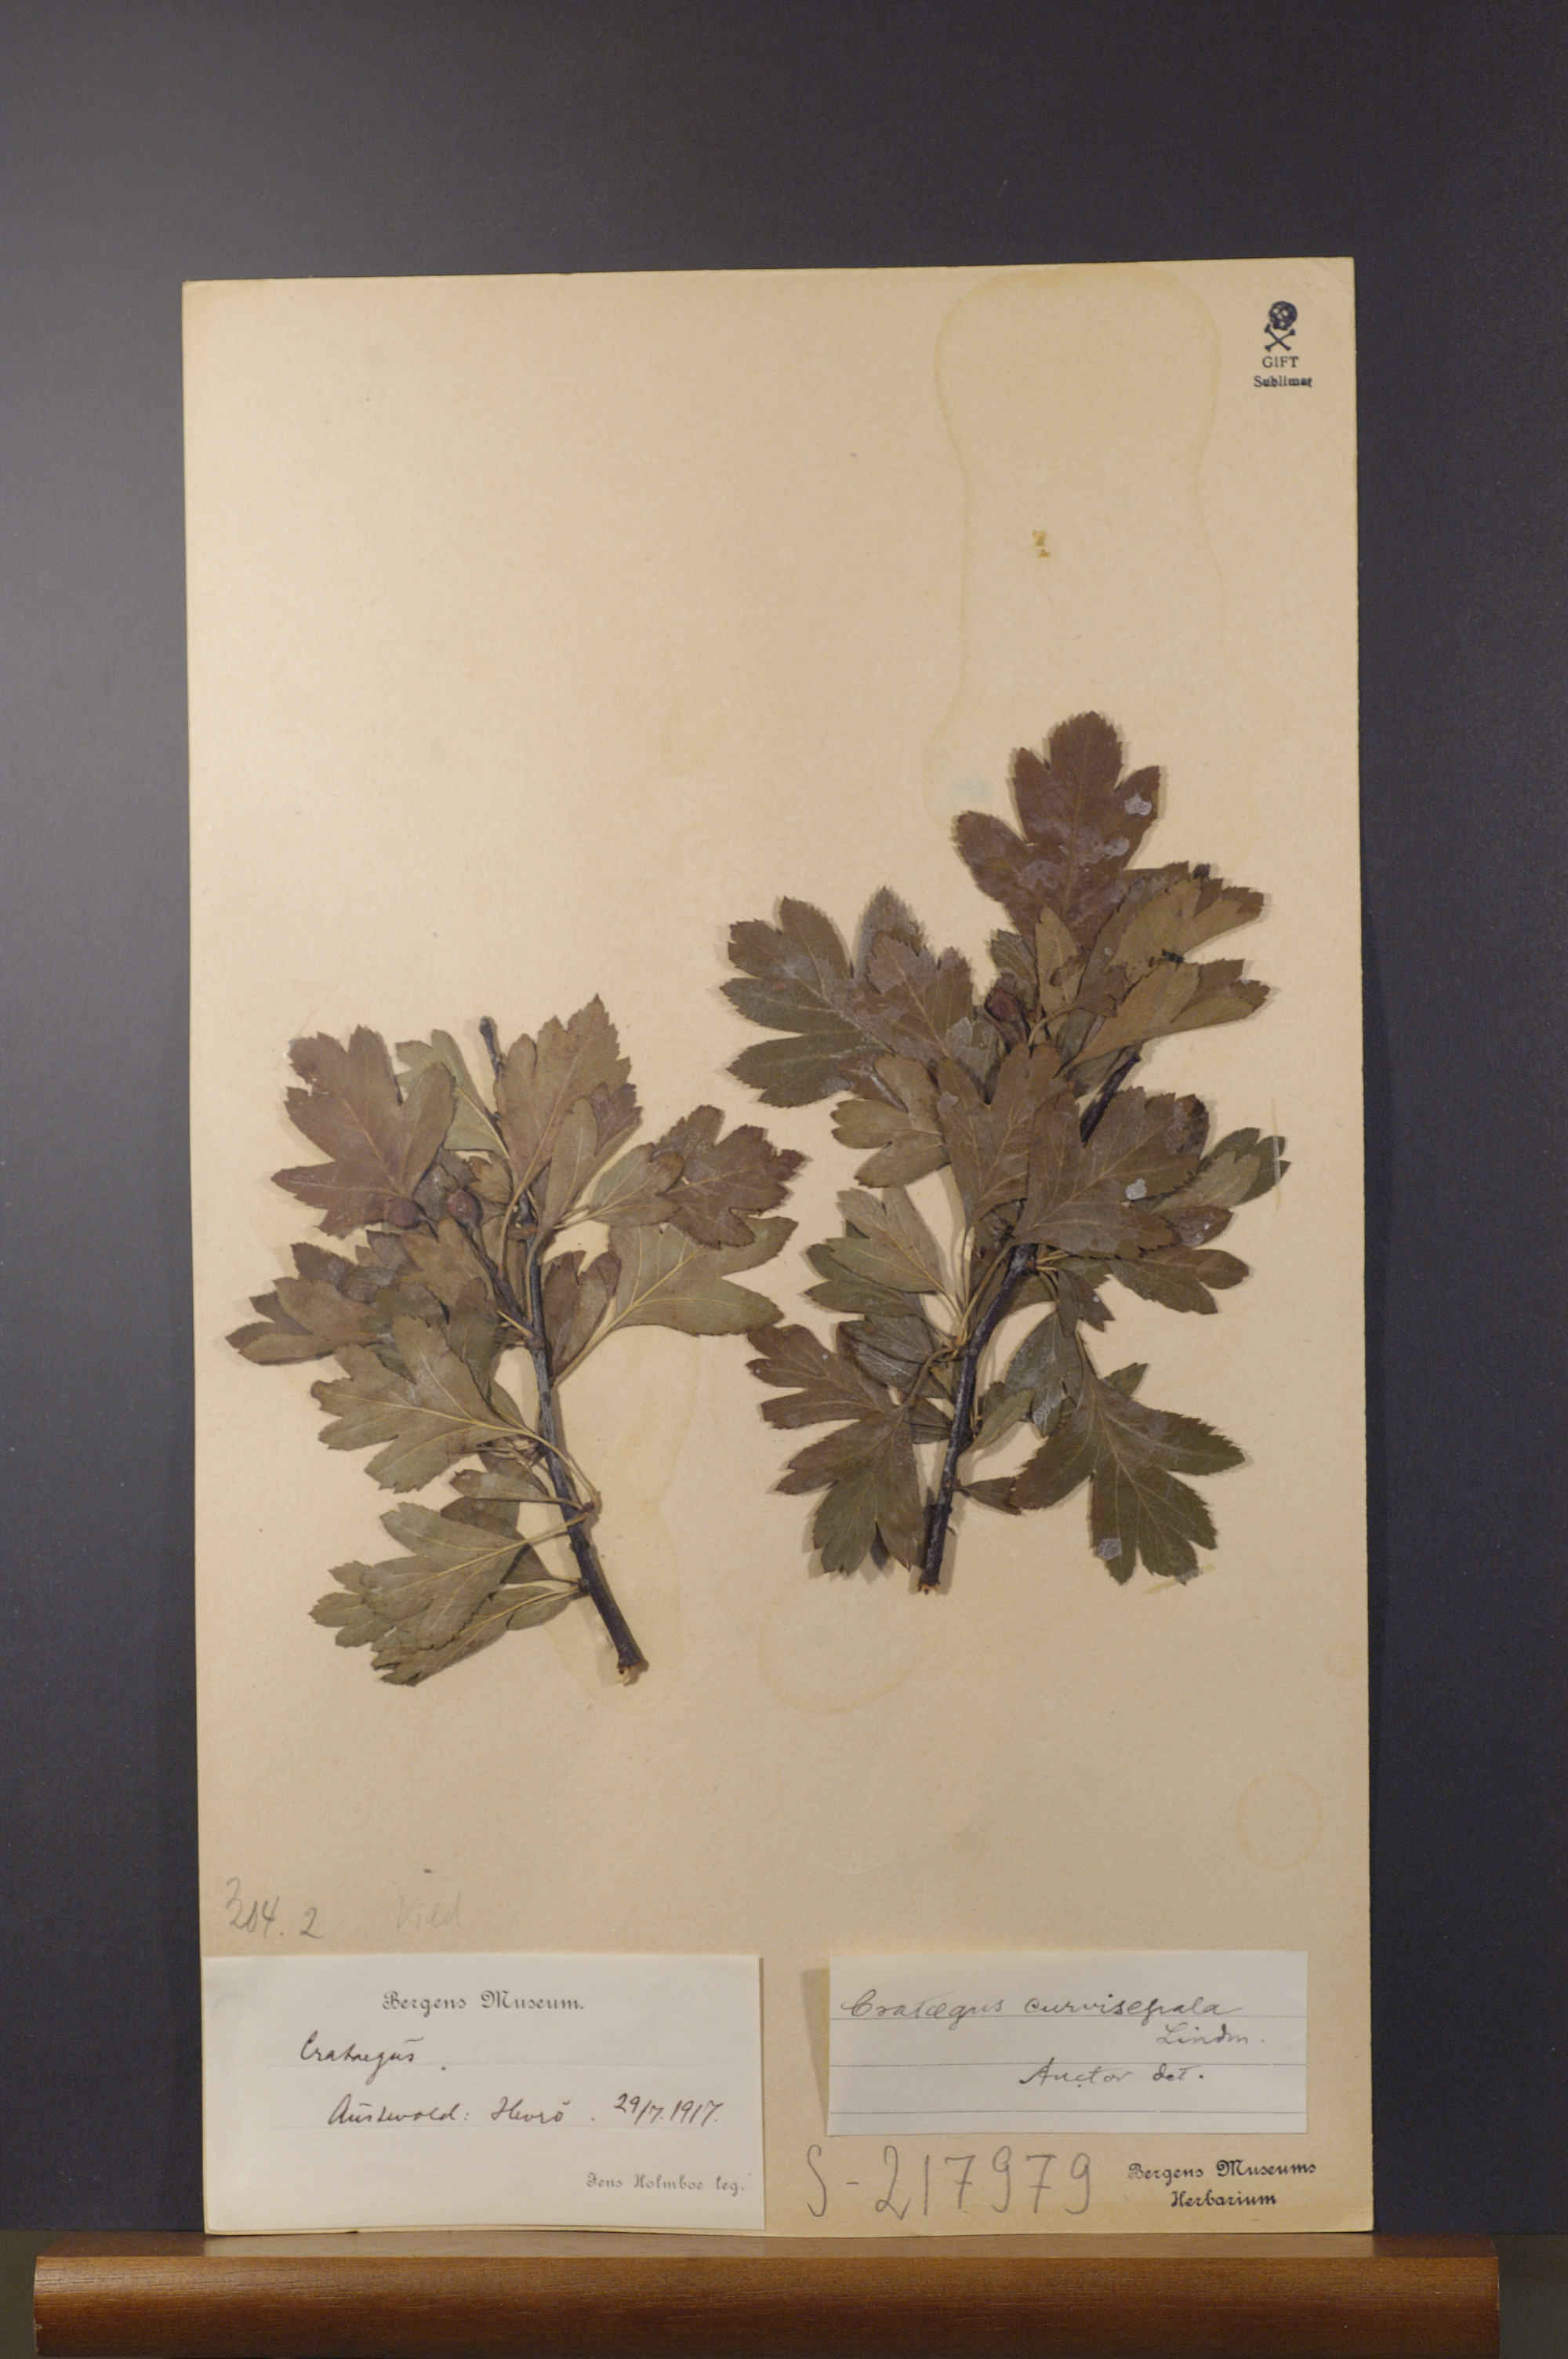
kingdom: Plantae
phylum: Tracheophyta
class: Magnoliopsida
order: Rosales
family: Rosaceae
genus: Crataegus
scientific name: Crataegus rhipidophylla
